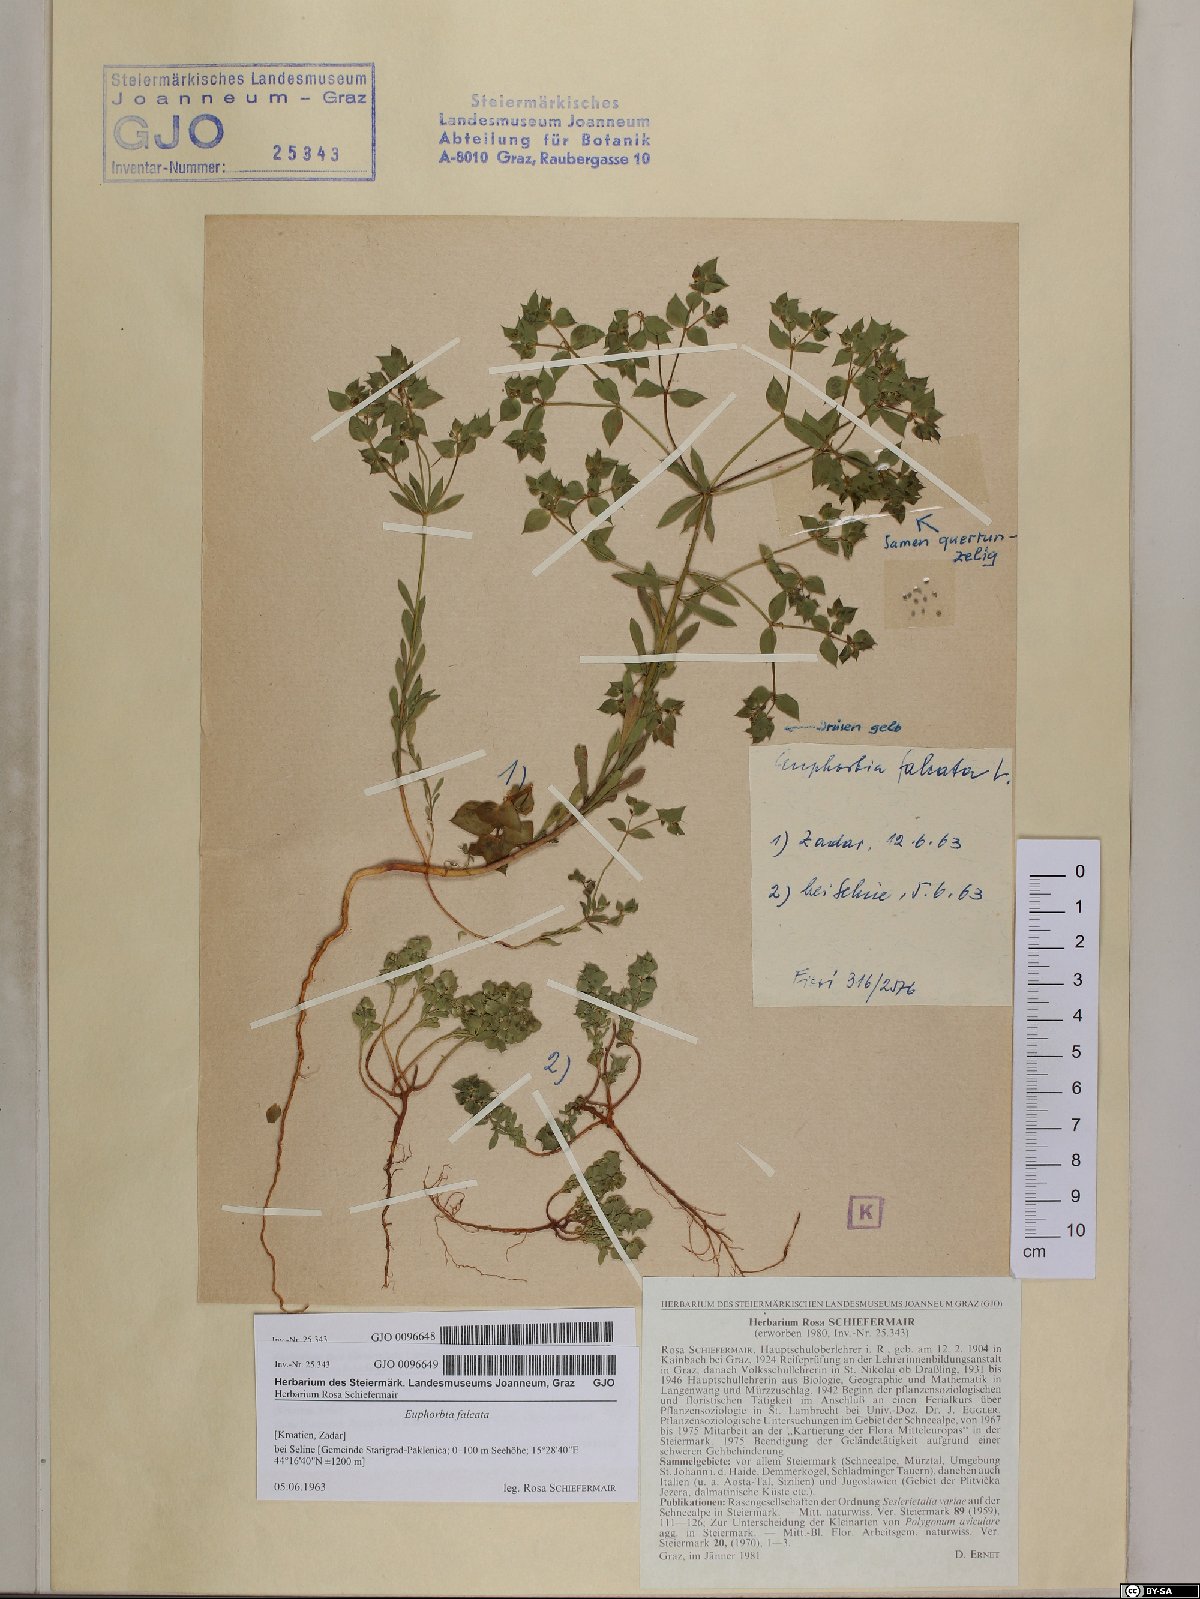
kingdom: Plantae
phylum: Tracheophyta
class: Magnoliopsida
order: Malpighiales
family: Euphorbiaceae
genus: Euphorbia
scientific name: Euphorbia falcata
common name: Sickle spurge
